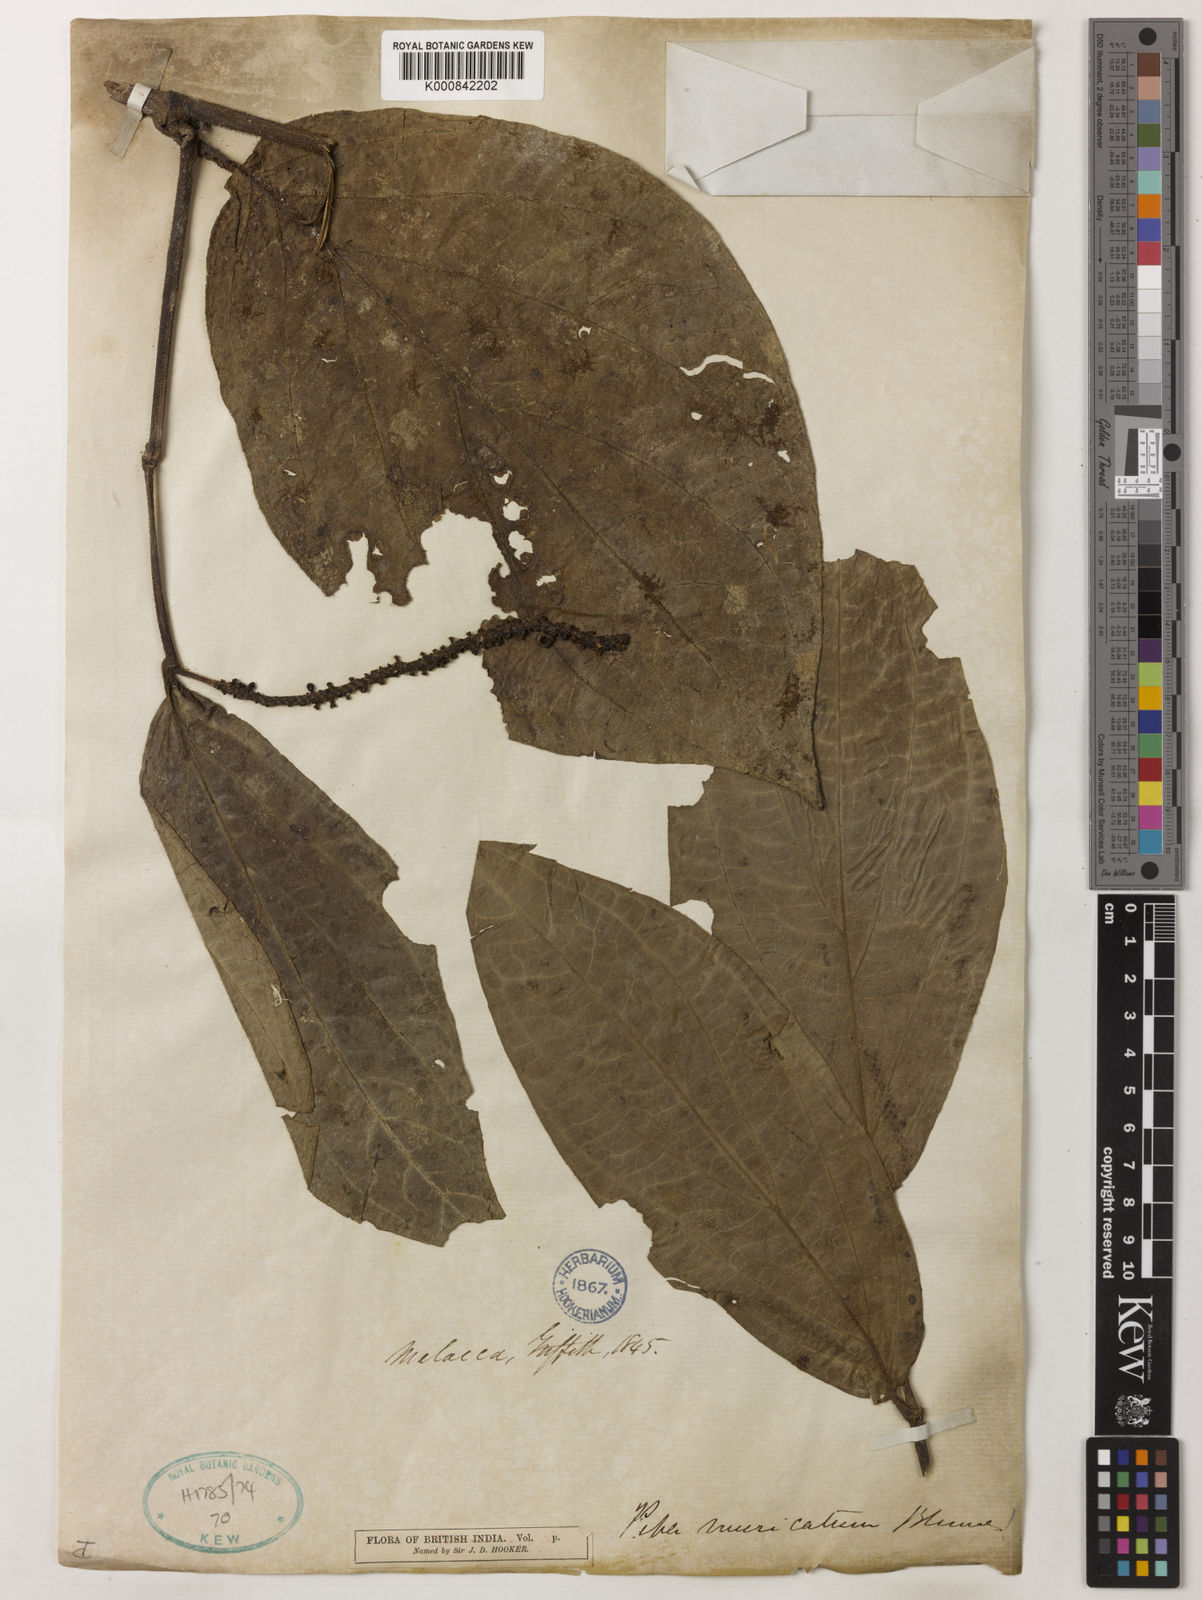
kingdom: Plantae
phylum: Tracheophyta
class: Magnoliopsida
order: Piperales
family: Piperaceae
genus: Piper
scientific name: Piper muricatum
